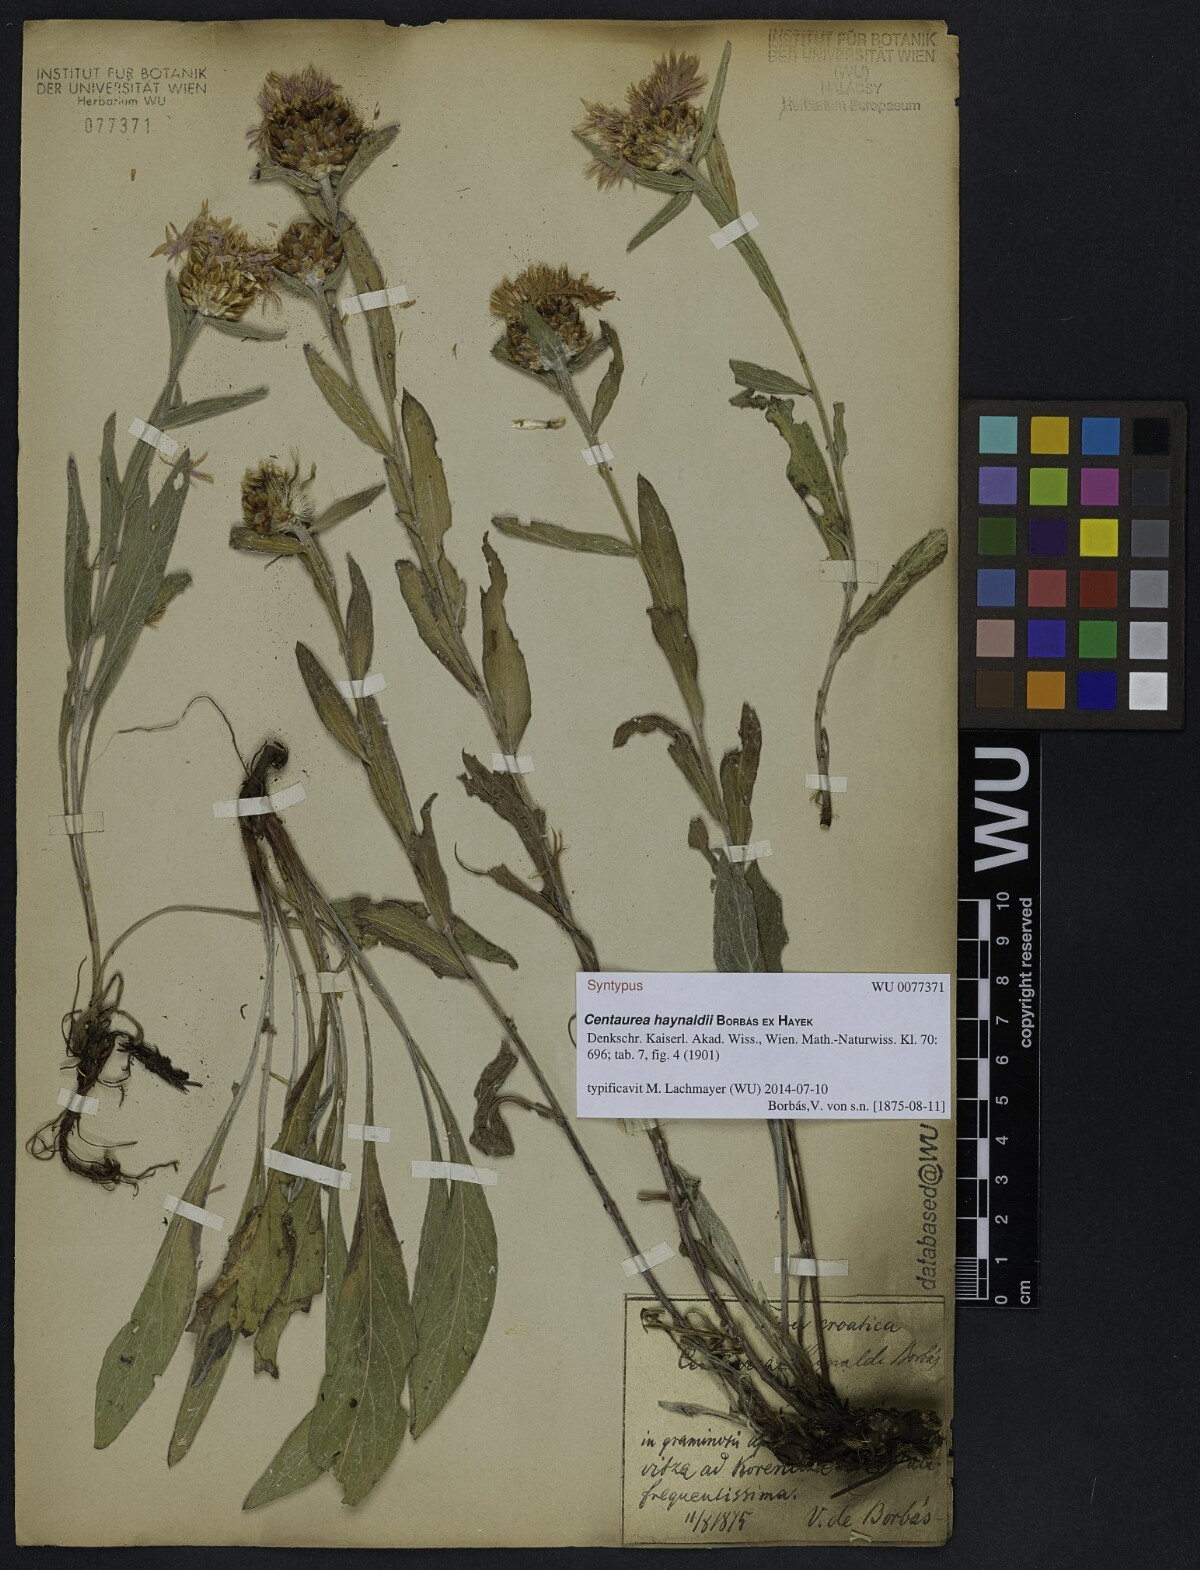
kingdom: Plantae
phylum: Tracheophyta
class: Magnoliopsida
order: Asterales
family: Asteraceae
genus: Centaurea
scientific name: Centaurea jacea
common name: Brown knapweed
